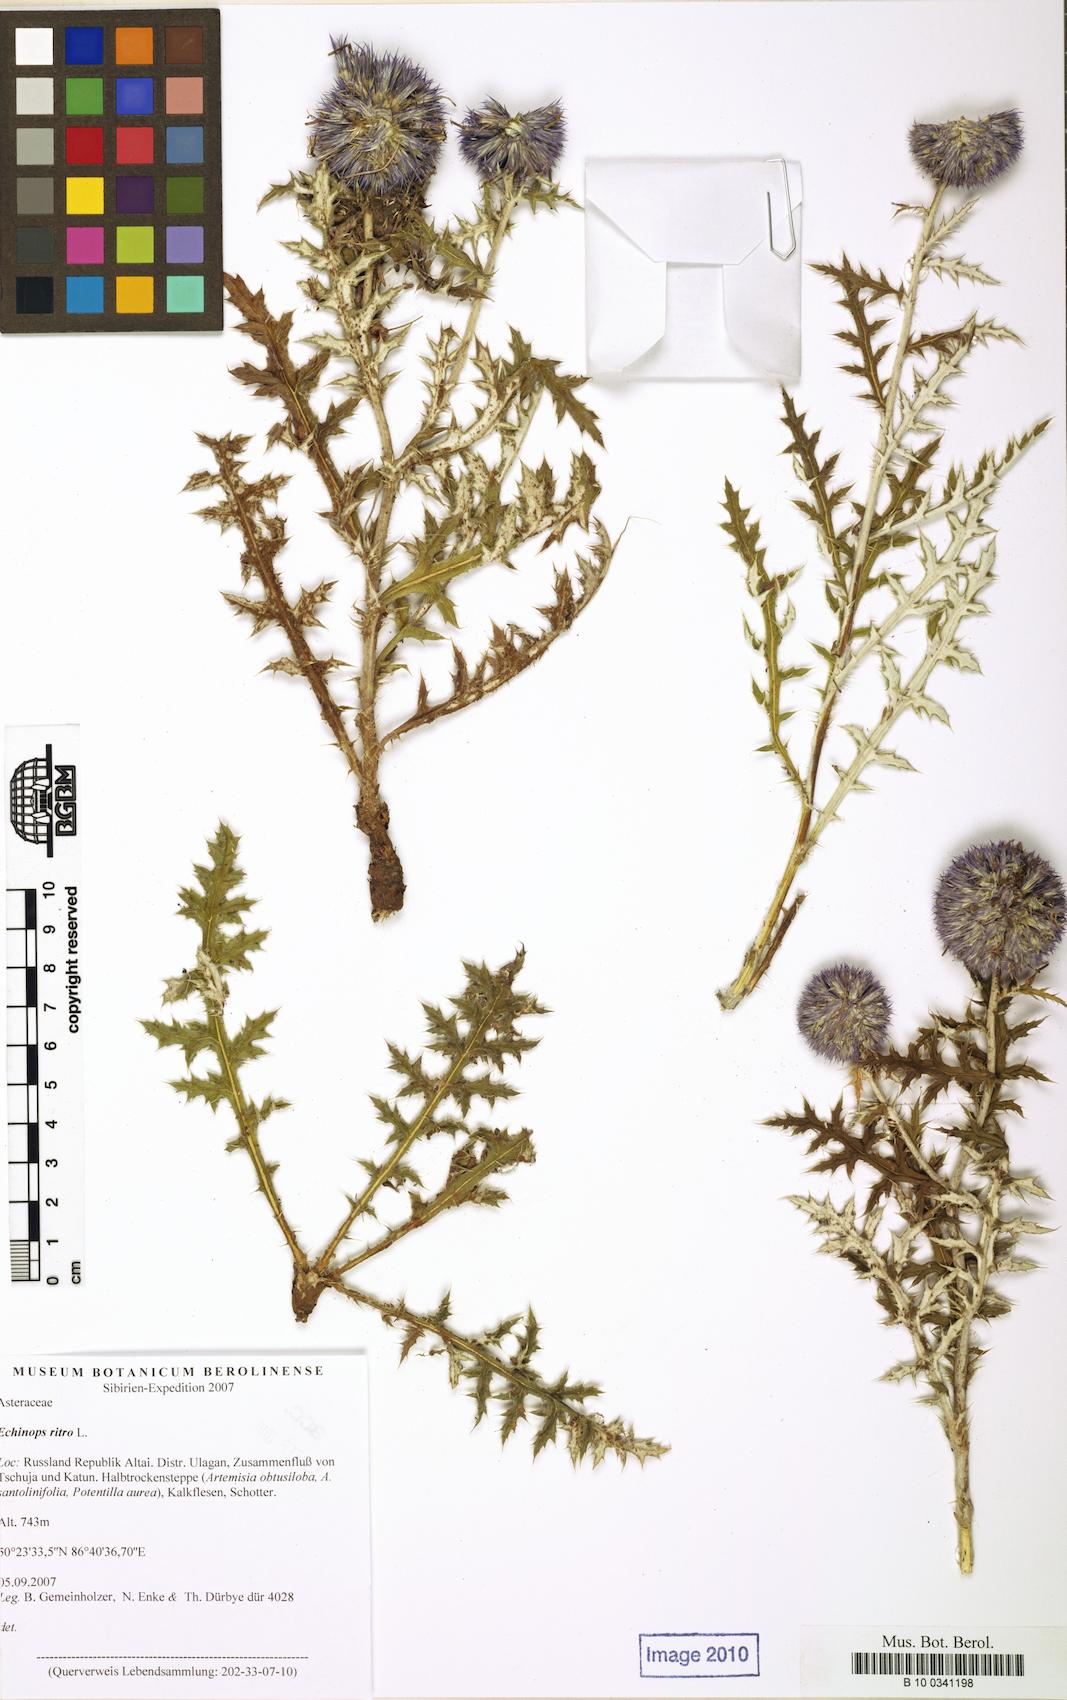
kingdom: Plantae
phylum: Tracheophyta
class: Magnoliopsida
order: Asterales
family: Asteraceae
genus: Echinops
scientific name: Echinops ritro
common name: Globe thistle
